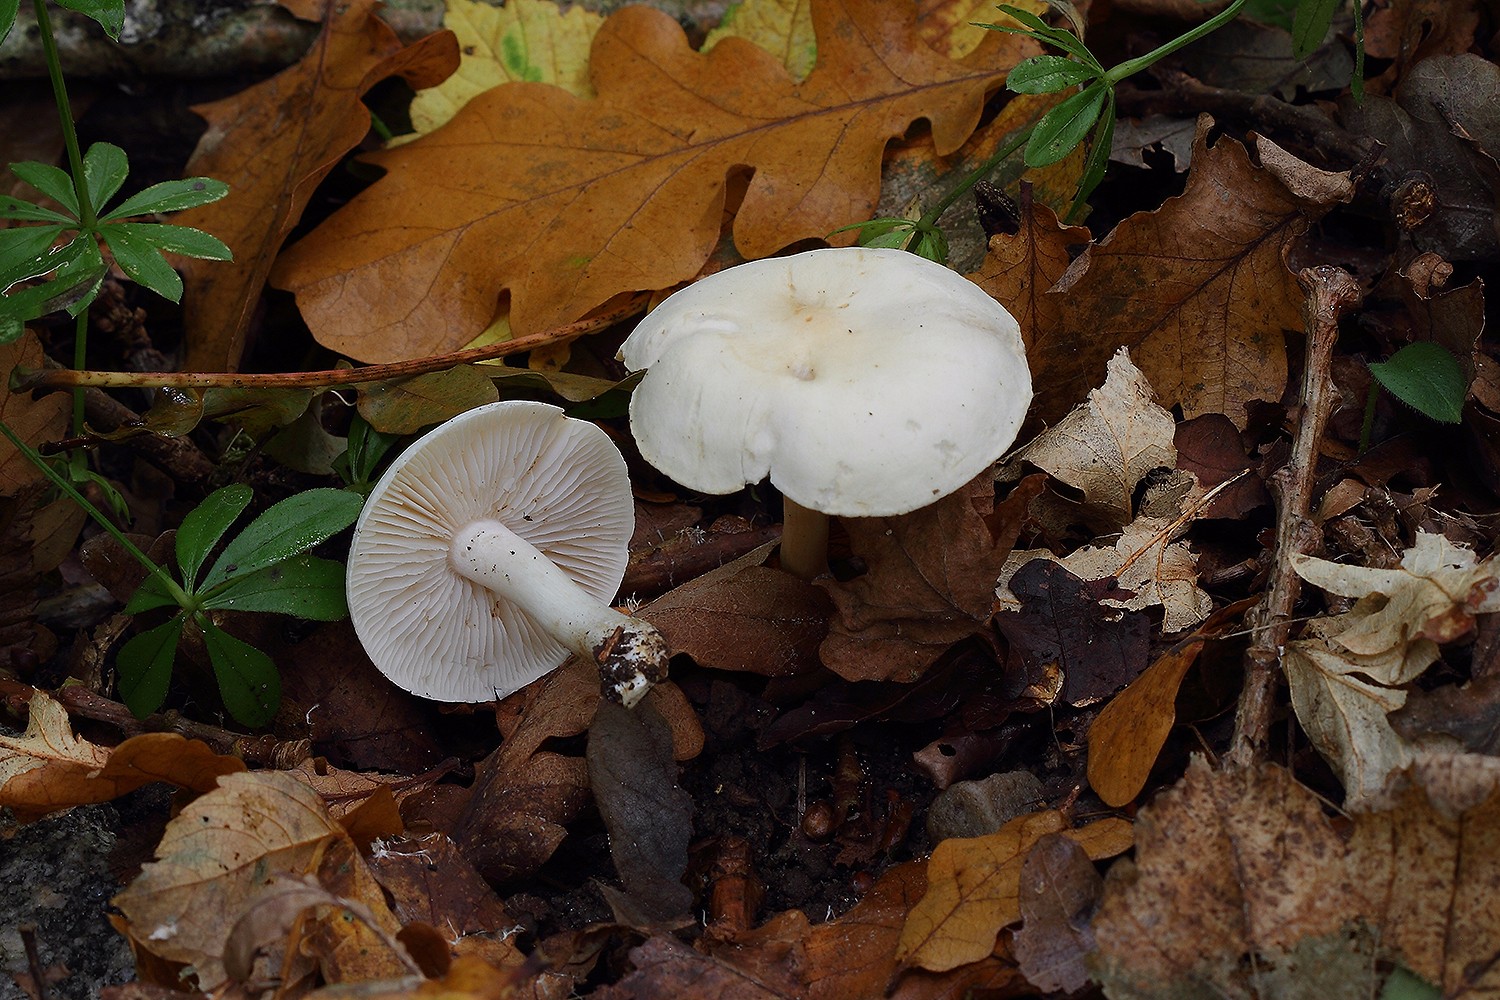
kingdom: Fungi
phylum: Basidiomycota
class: Agaricomycetes
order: Agaricales
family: Tricholomataceae
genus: Tricholoma
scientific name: Tricholoma album
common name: honning-ridderhat
